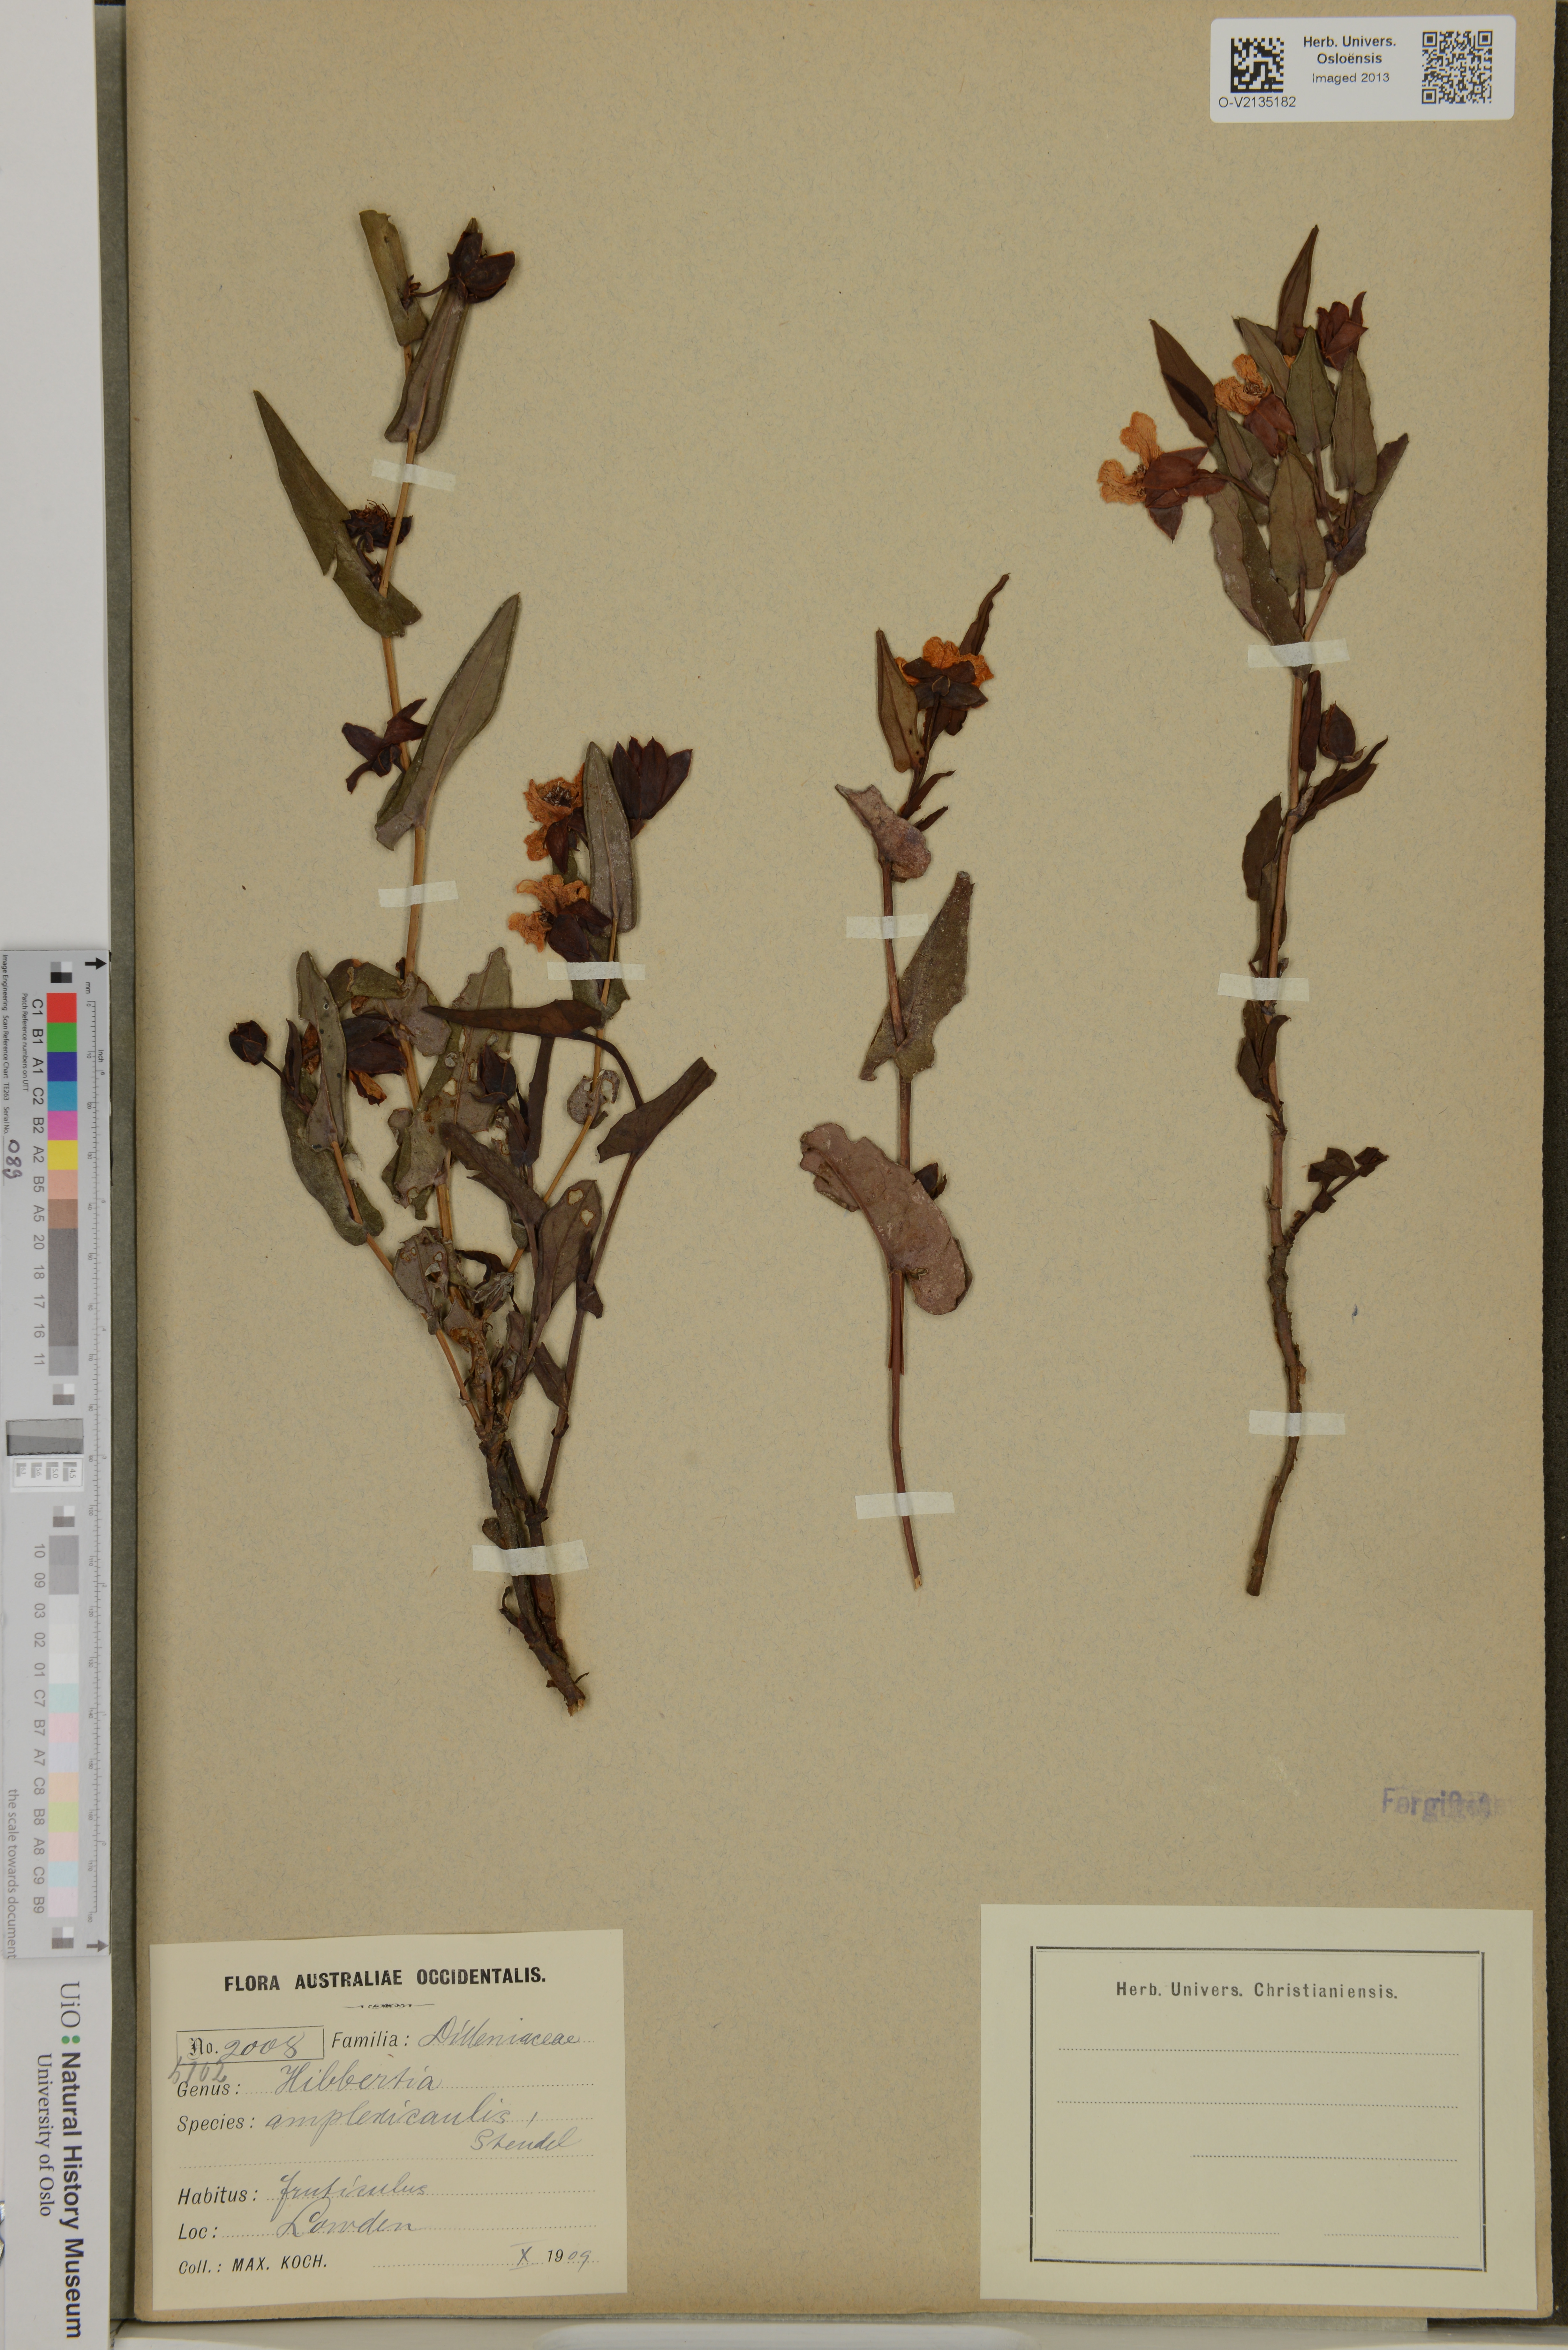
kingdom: Plantae
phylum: Tracheophyta
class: Magnoliopsida
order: Dilleniales
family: Dilleniaceae
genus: Hibbertia
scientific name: Hibbertia amplexicaulis
